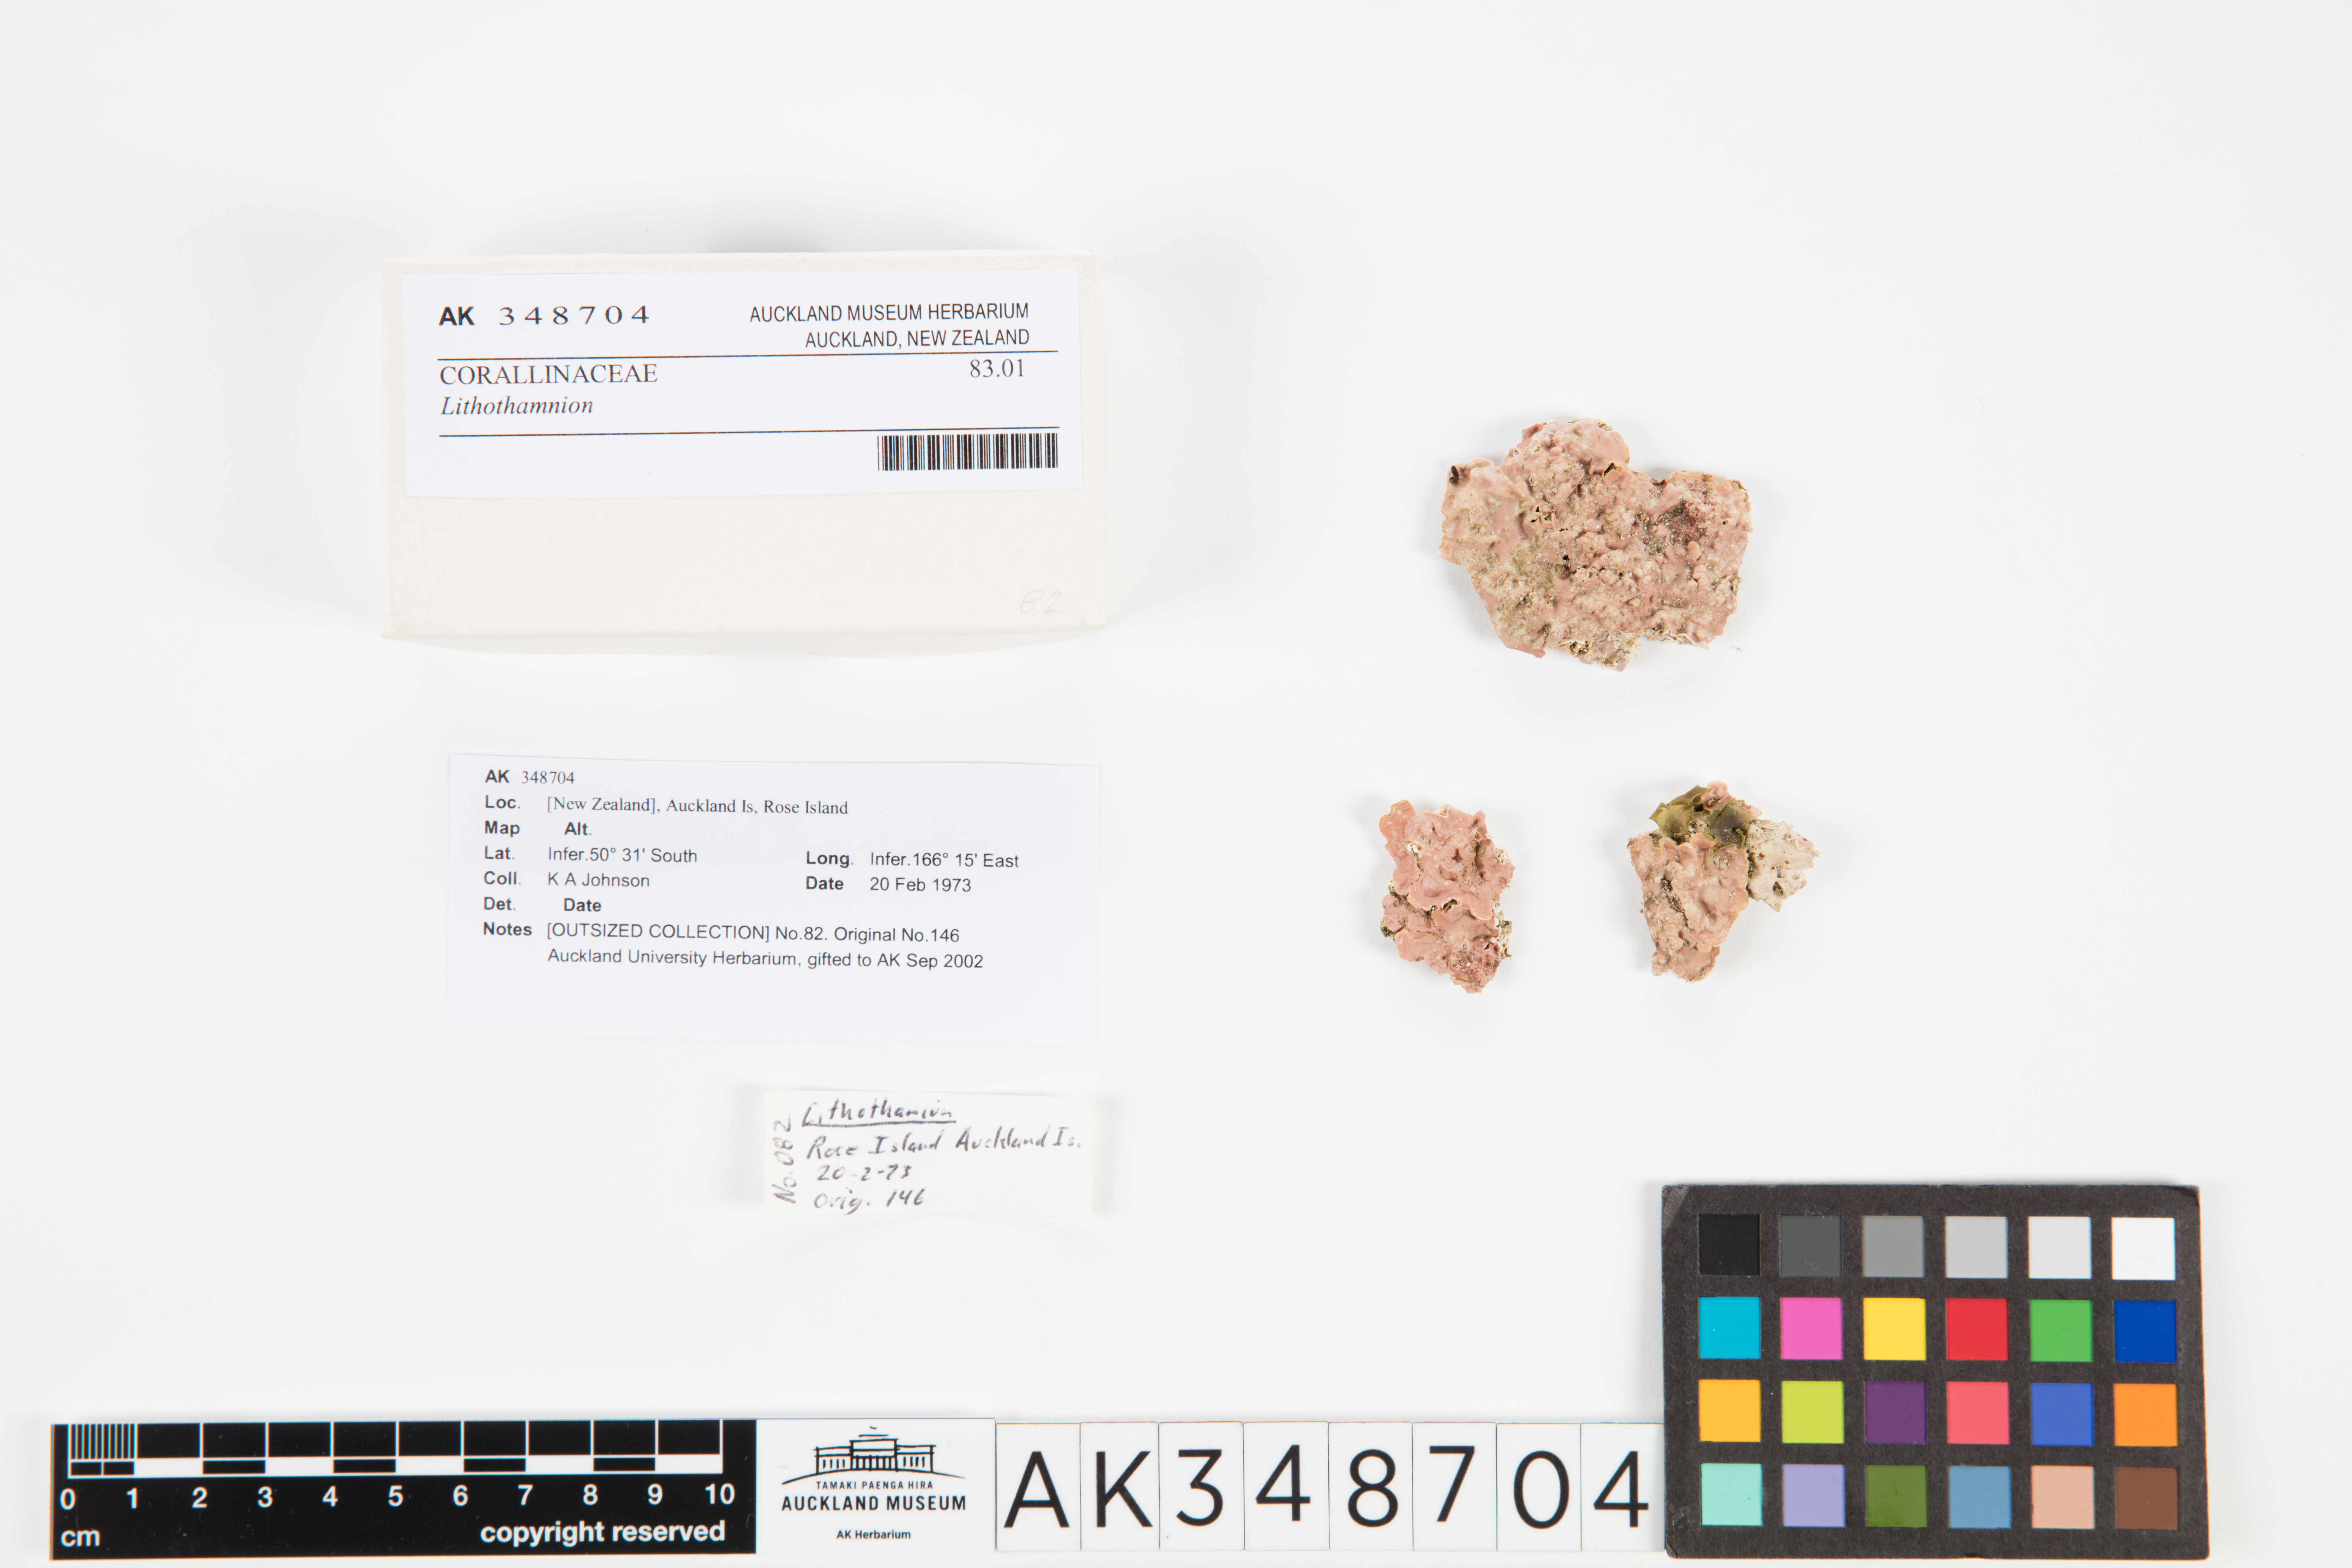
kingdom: Plantae
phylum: Rhodophyta
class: Florideophyceae
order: Corallinales
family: Hapalidiaceae
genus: Lithothamnion
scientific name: Lithothamnion
